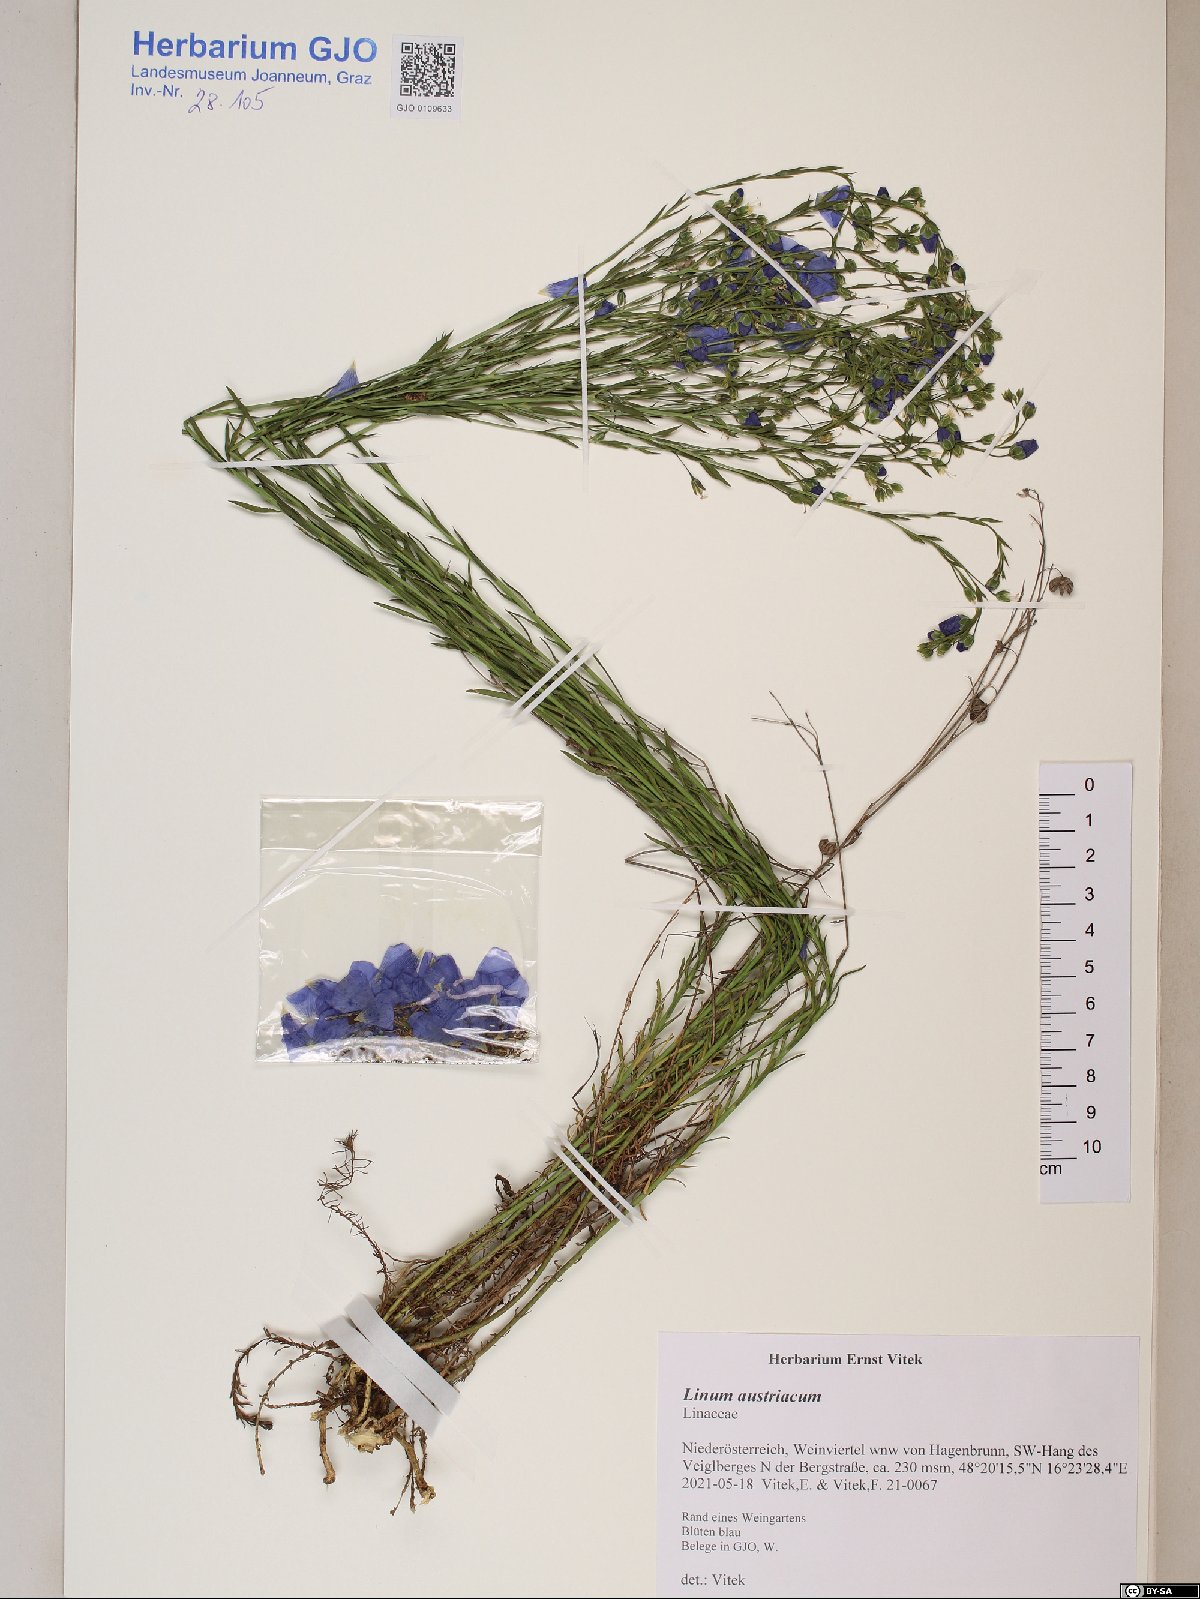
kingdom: Plantae
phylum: Tracheophyta
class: Magnoliopsida
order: Malpighiales
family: Linaceae
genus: Linum
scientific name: Linum austriacum
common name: Austrian flax
